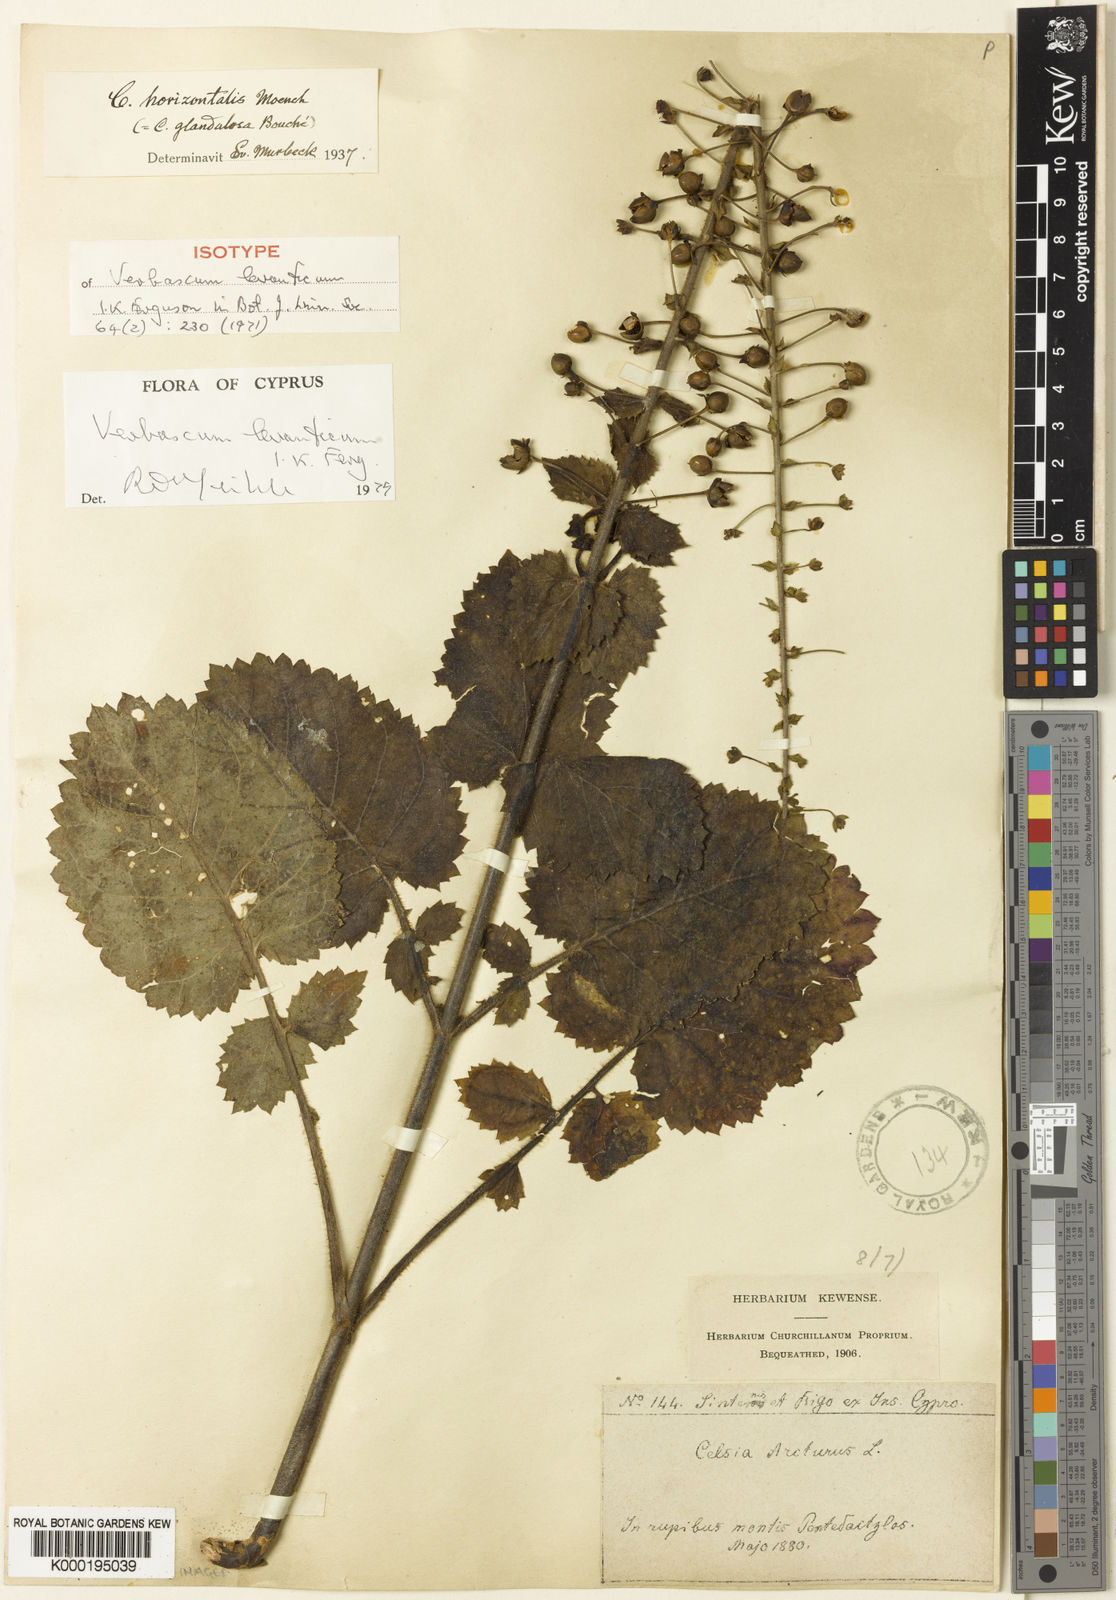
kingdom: Plantae
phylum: Tracheophyta
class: Magnoliopsida
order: Lamiales
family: Scrophulariaceae
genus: Verbascum
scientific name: Verbascum levanticum
